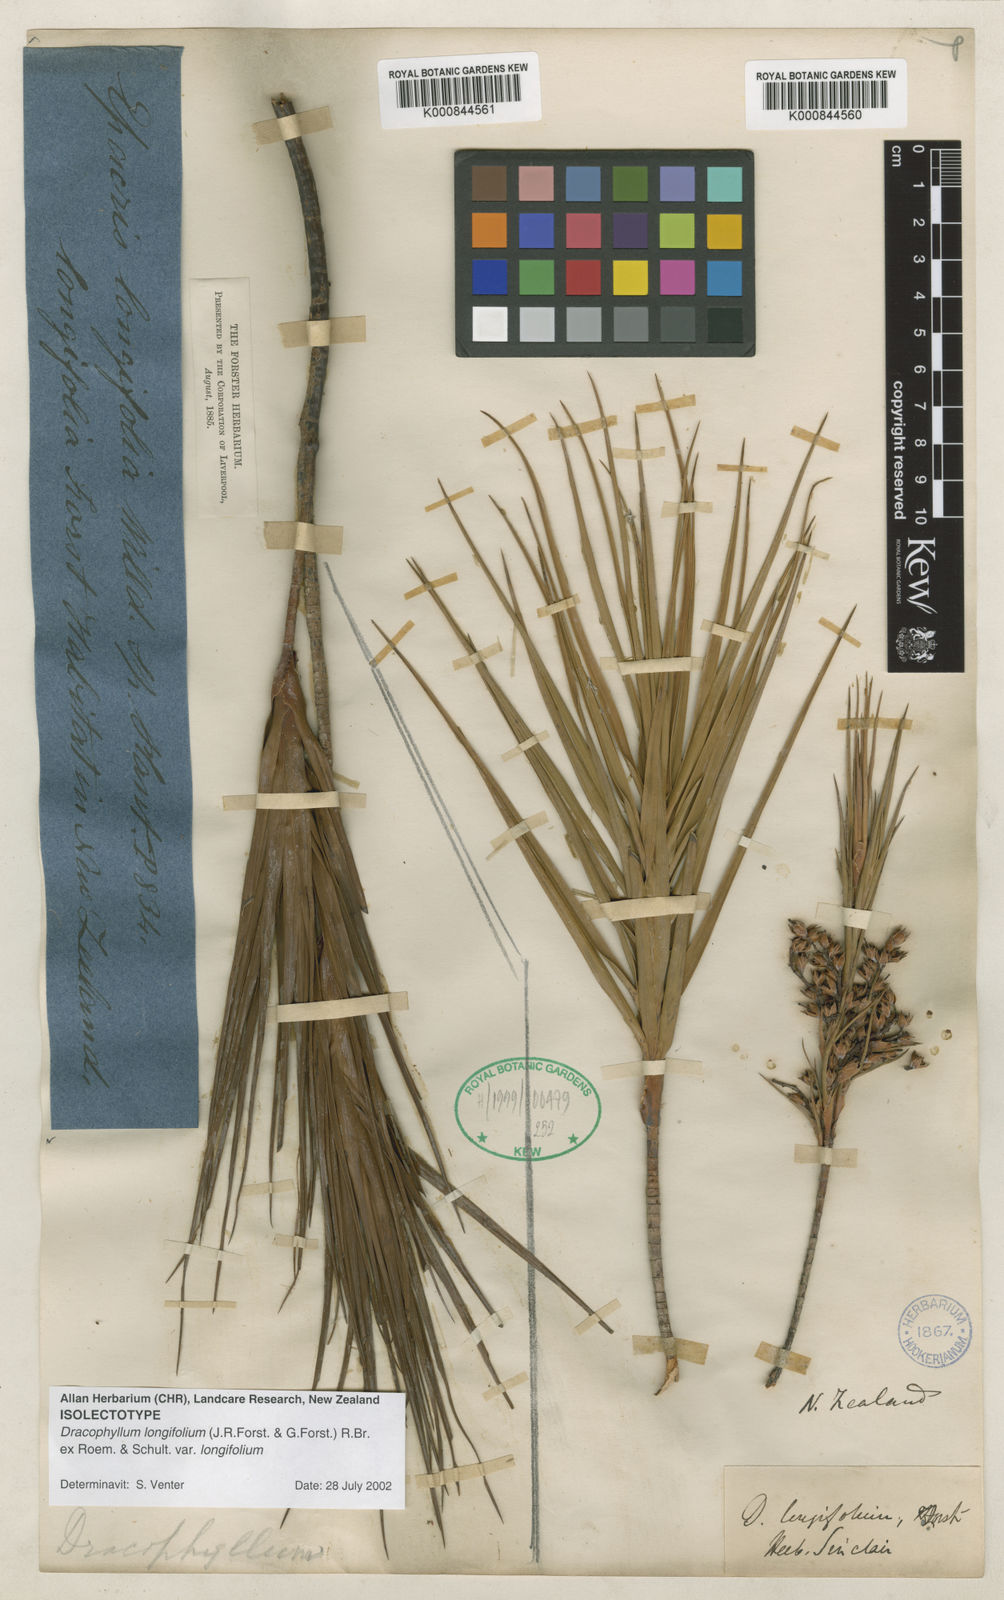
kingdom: Plantae
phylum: Tracheophyta
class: Magnoliopsida
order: Ericales
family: Ericaceae
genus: Dracophyllum
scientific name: Dracophyllum
